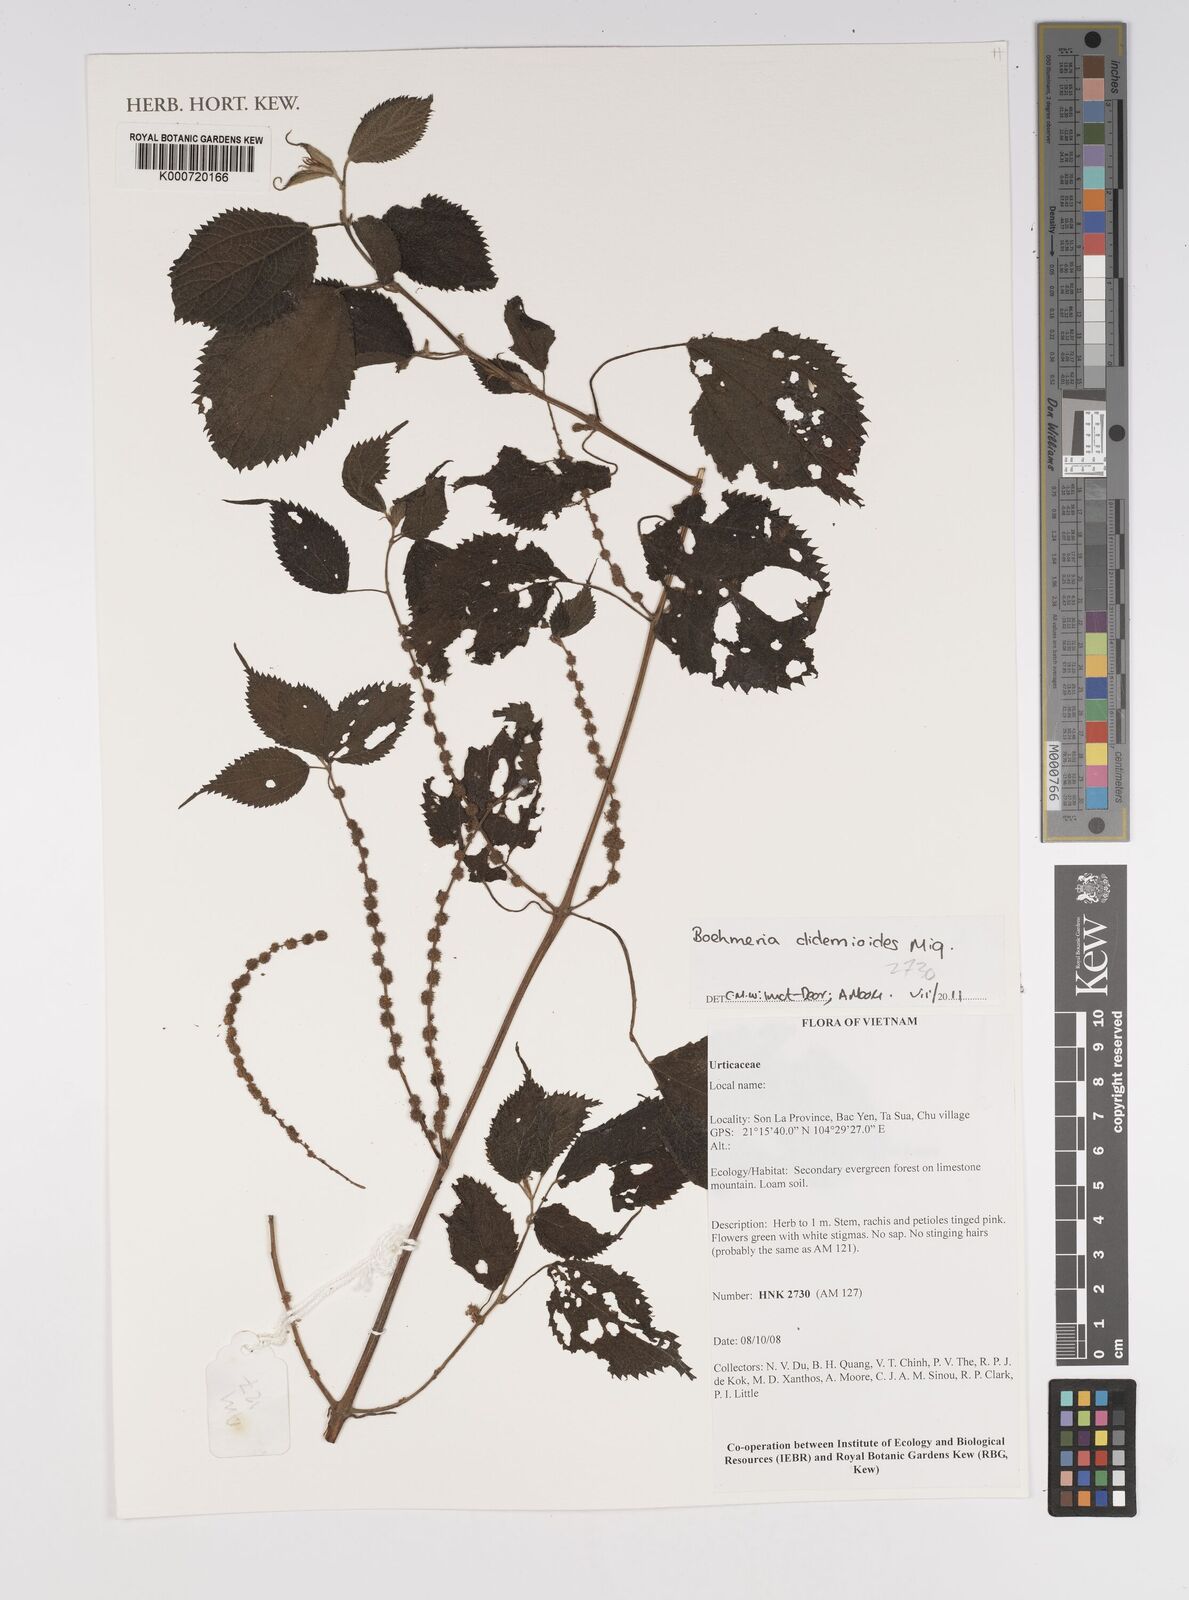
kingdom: Plantae
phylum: Tracheophyta
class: Magnoliopsida
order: Rosales
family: Urticaceae
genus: Boehmeria
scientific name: Boehmeria clidemioides
